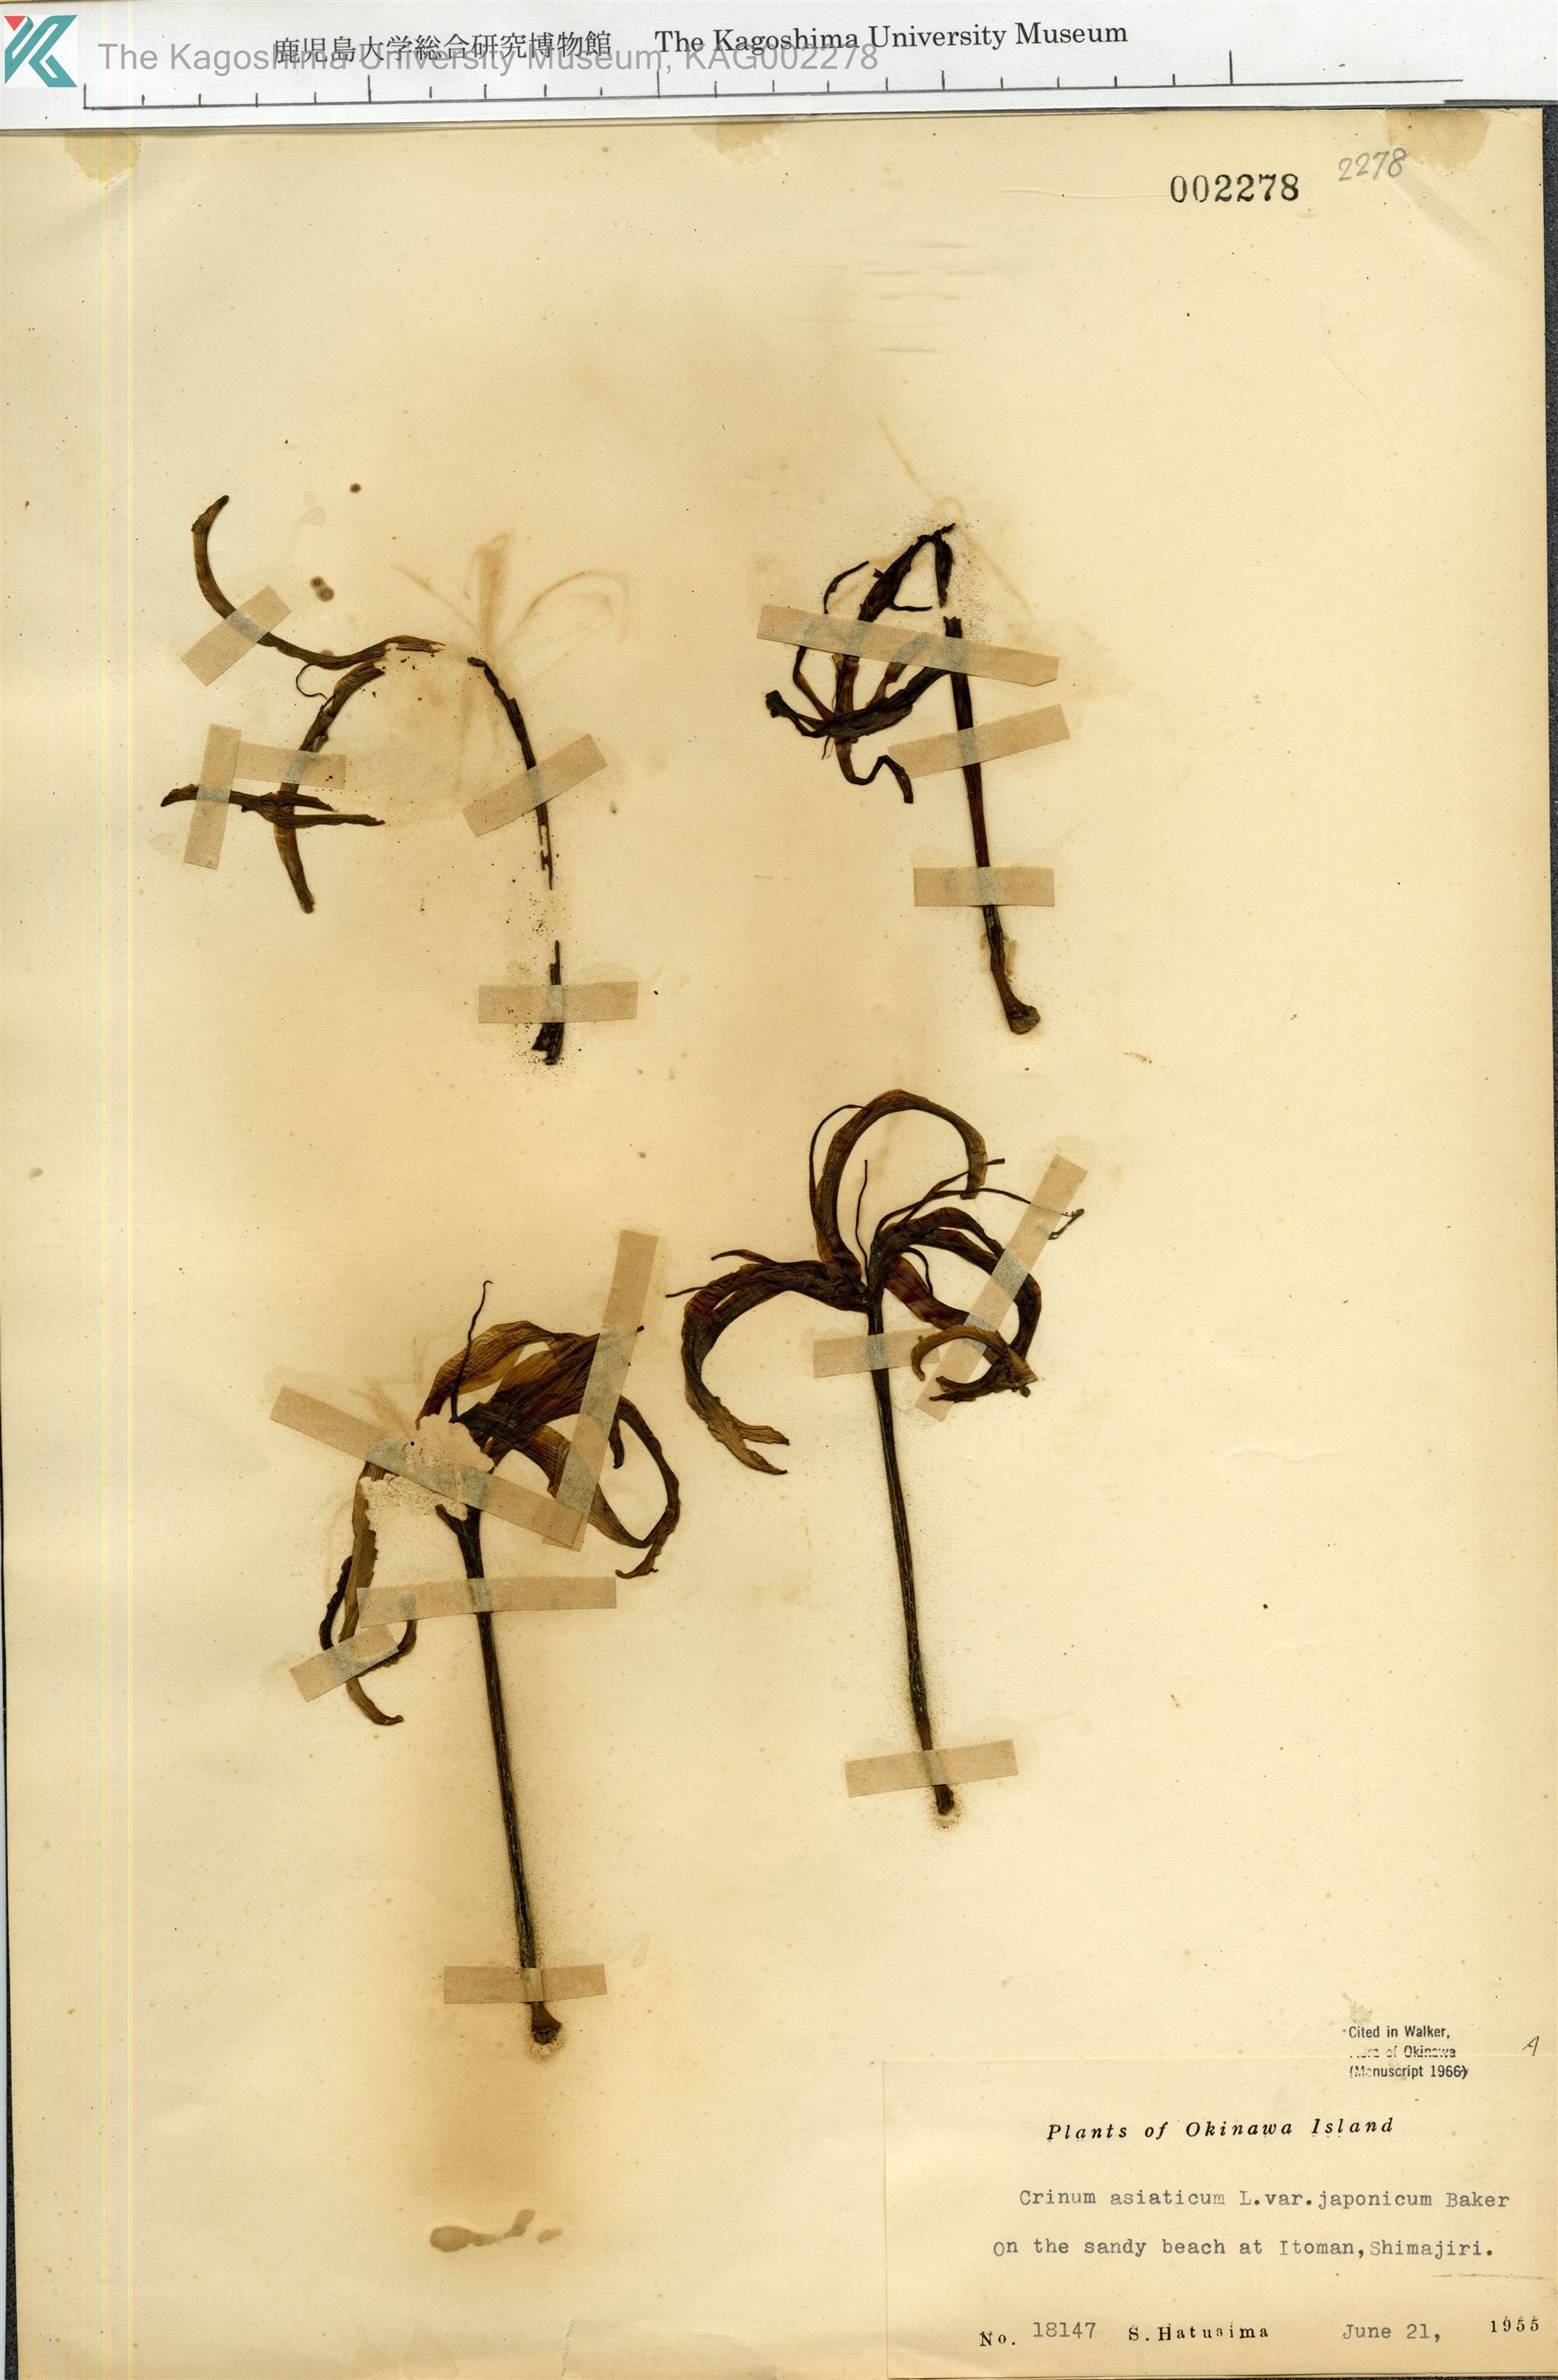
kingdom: Plantae
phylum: Tracheophyta
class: Liliopsida
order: Asparagales
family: Amaryllidaceae
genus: Crinum
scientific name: Crinum asiaticum
